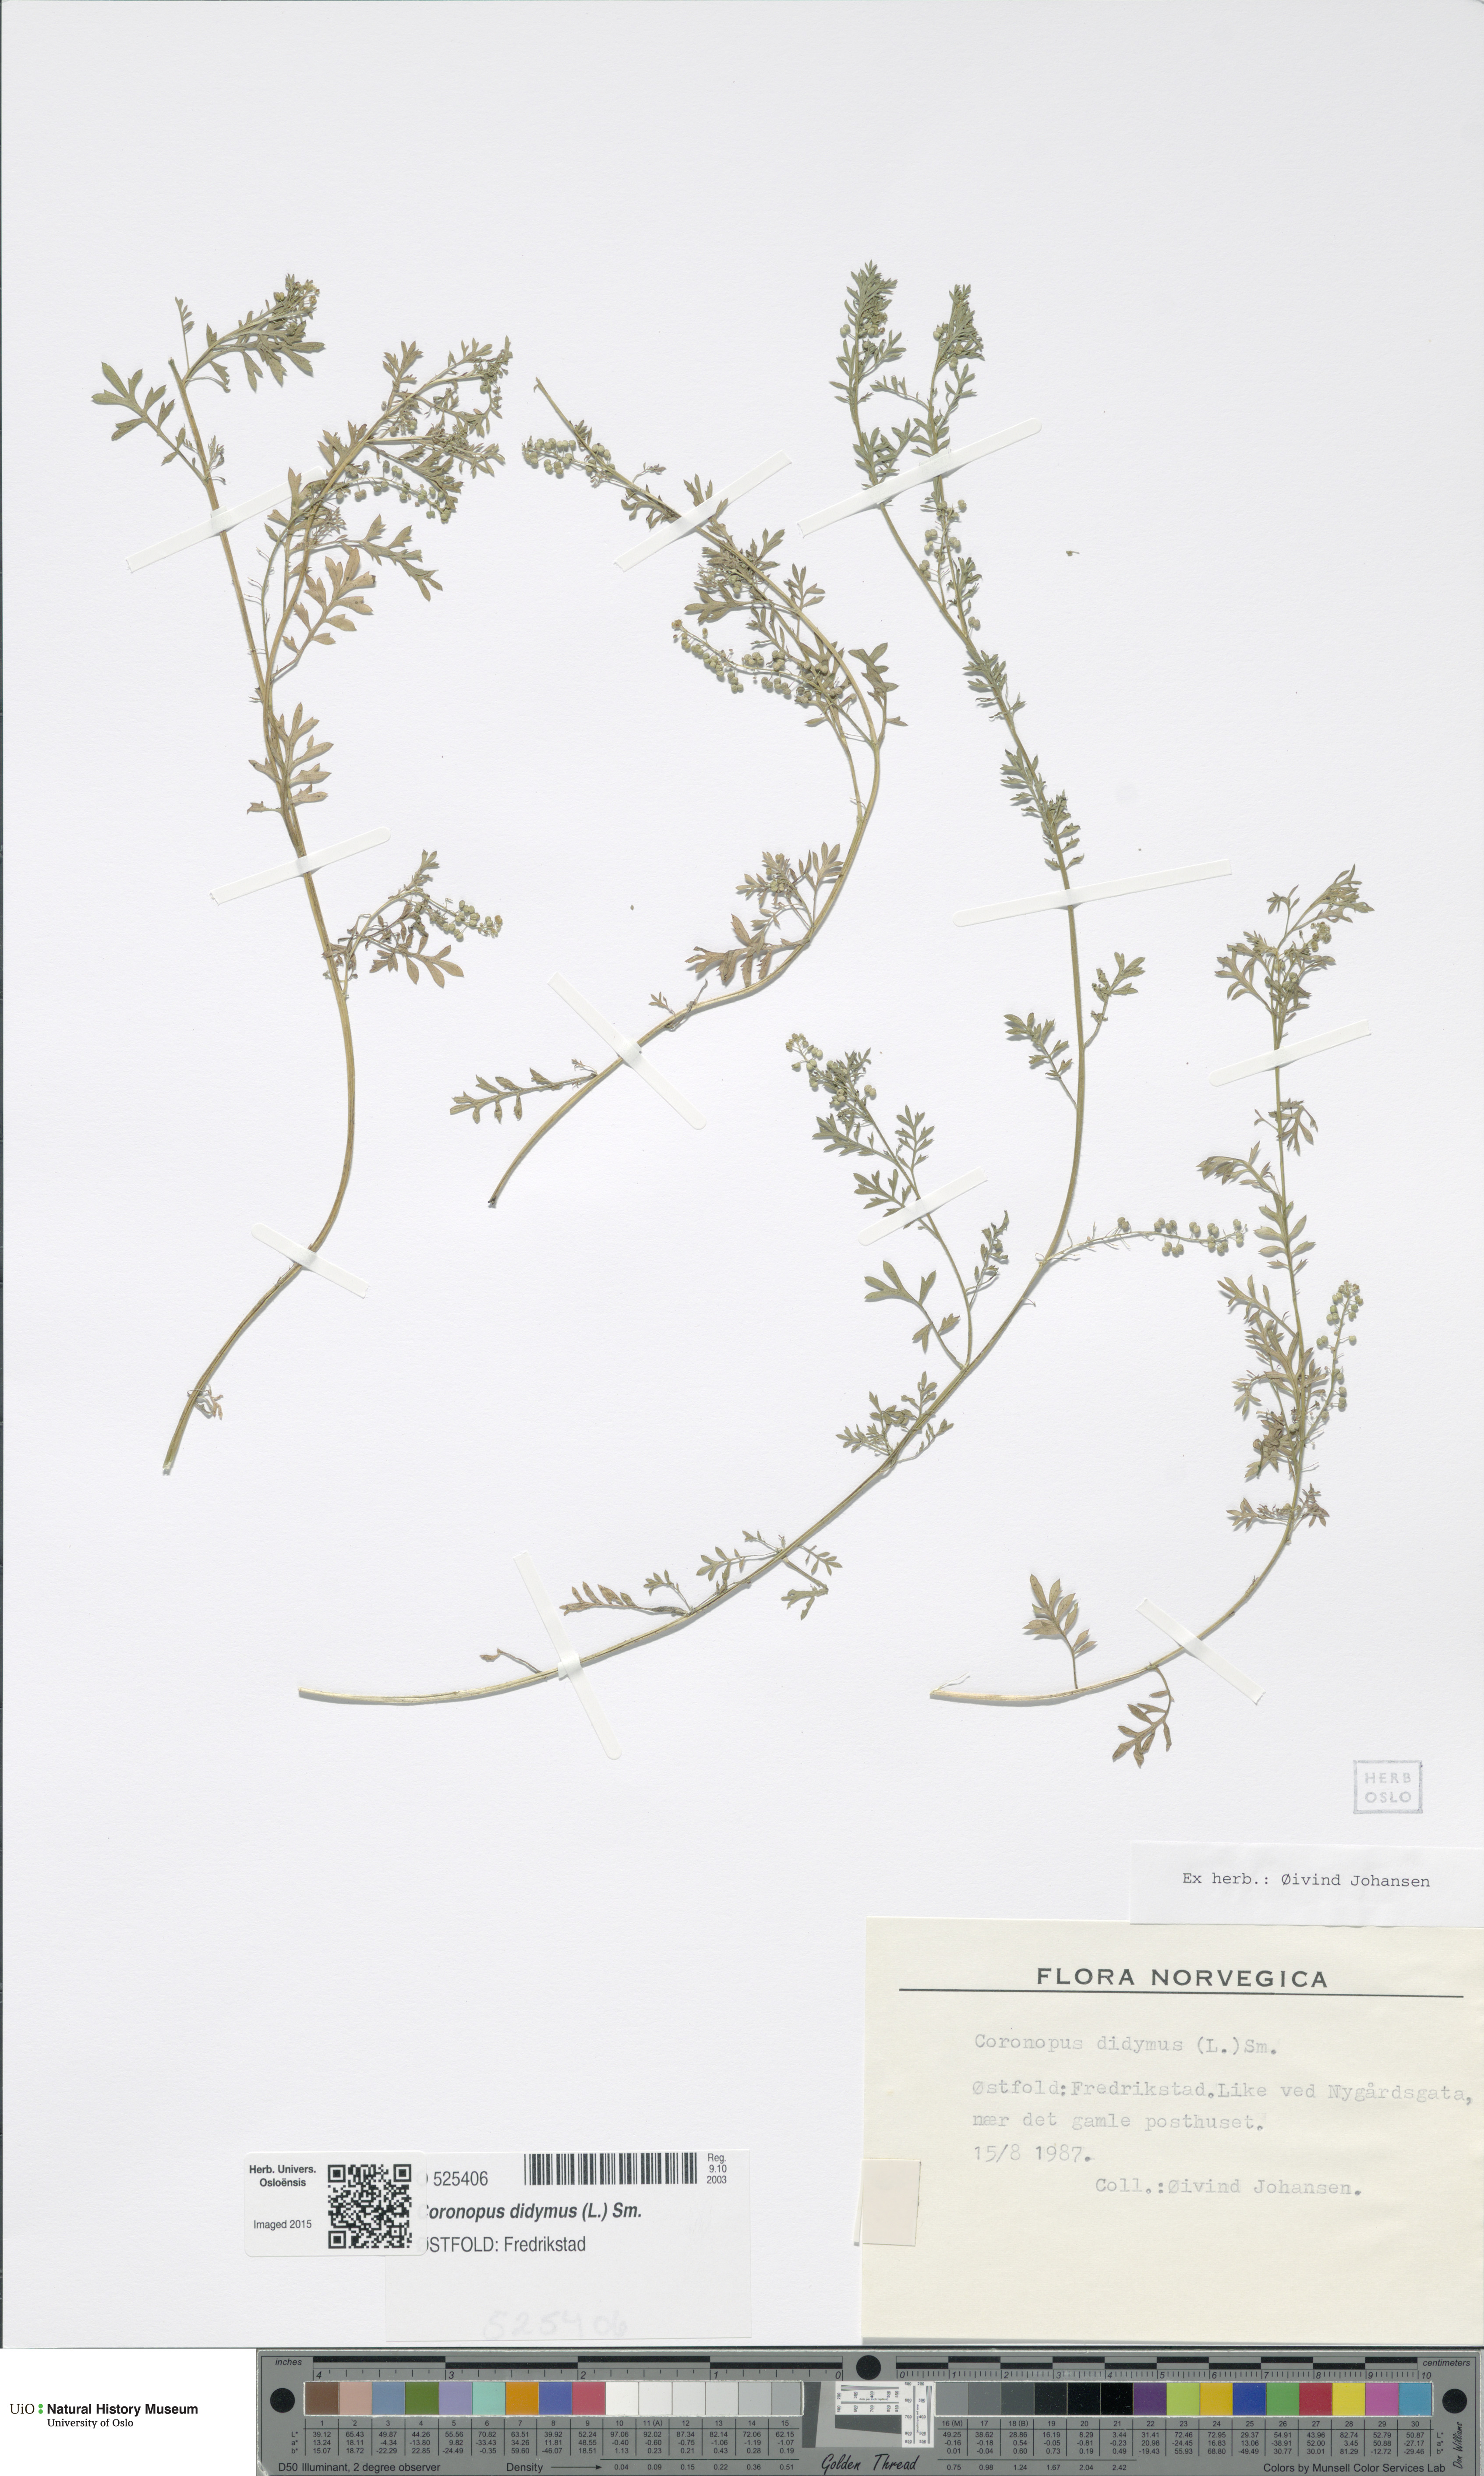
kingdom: Plantae
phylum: Tracheophyta
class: Magnoliopsida
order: Brassicales
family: Brassicaceae
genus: Lepidium
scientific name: Lepidium didymum
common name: Lesser swinecress
